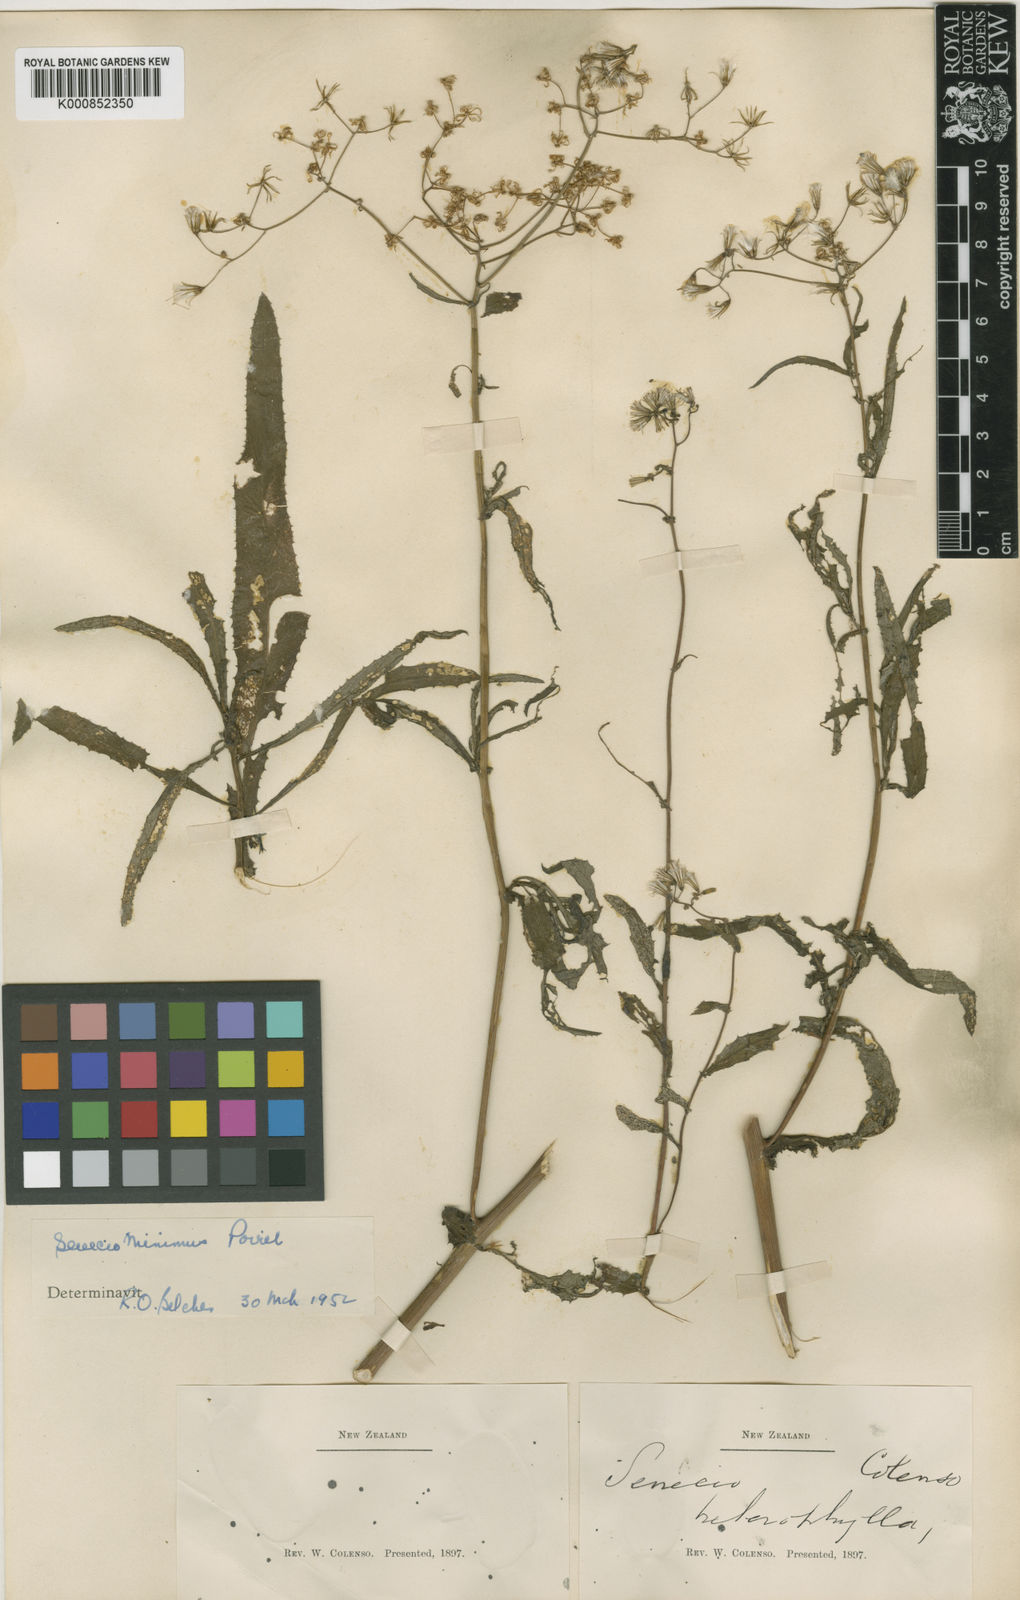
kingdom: Plantae
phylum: Tracheophyta
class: Magnoliopsida
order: Asterales
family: Asteraceae
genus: Senecio
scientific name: Senecio minimus
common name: Toothed fireweed
